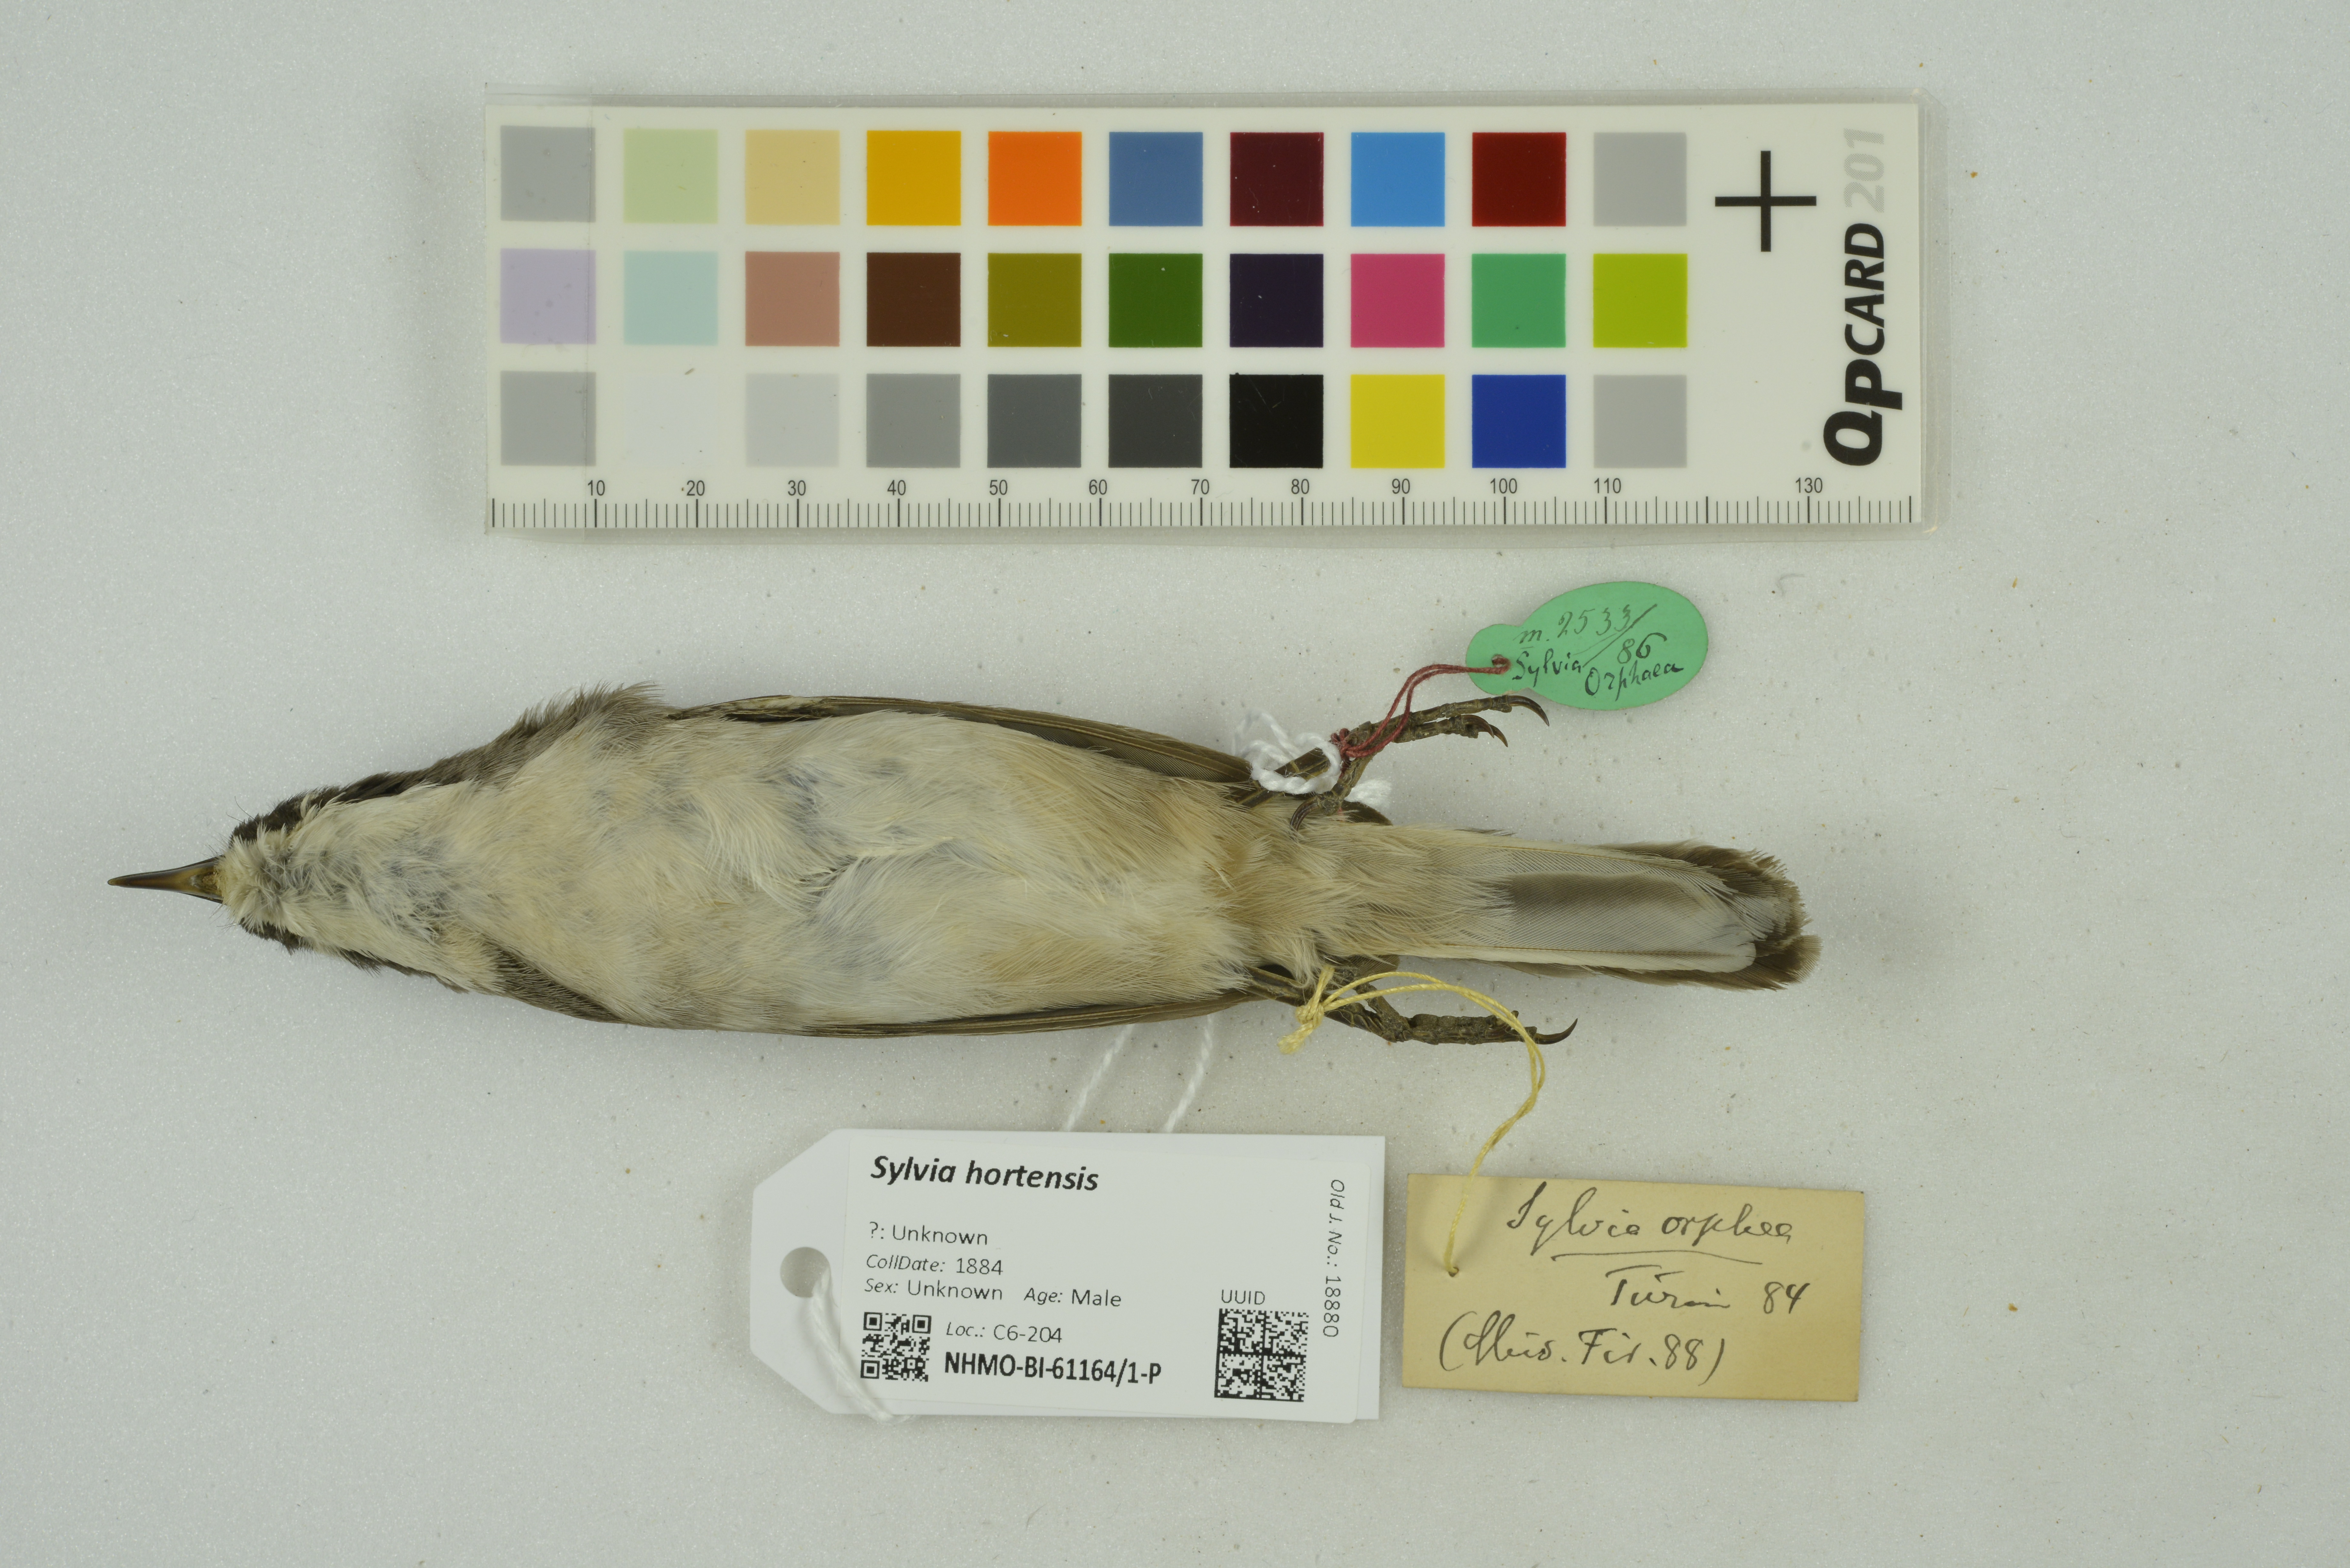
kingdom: Animalia
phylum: Chordata
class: Aves
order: Passeriformes
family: Sylviidae
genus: Sylvia
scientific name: Sylvia hortensis
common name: Orphean warbler
